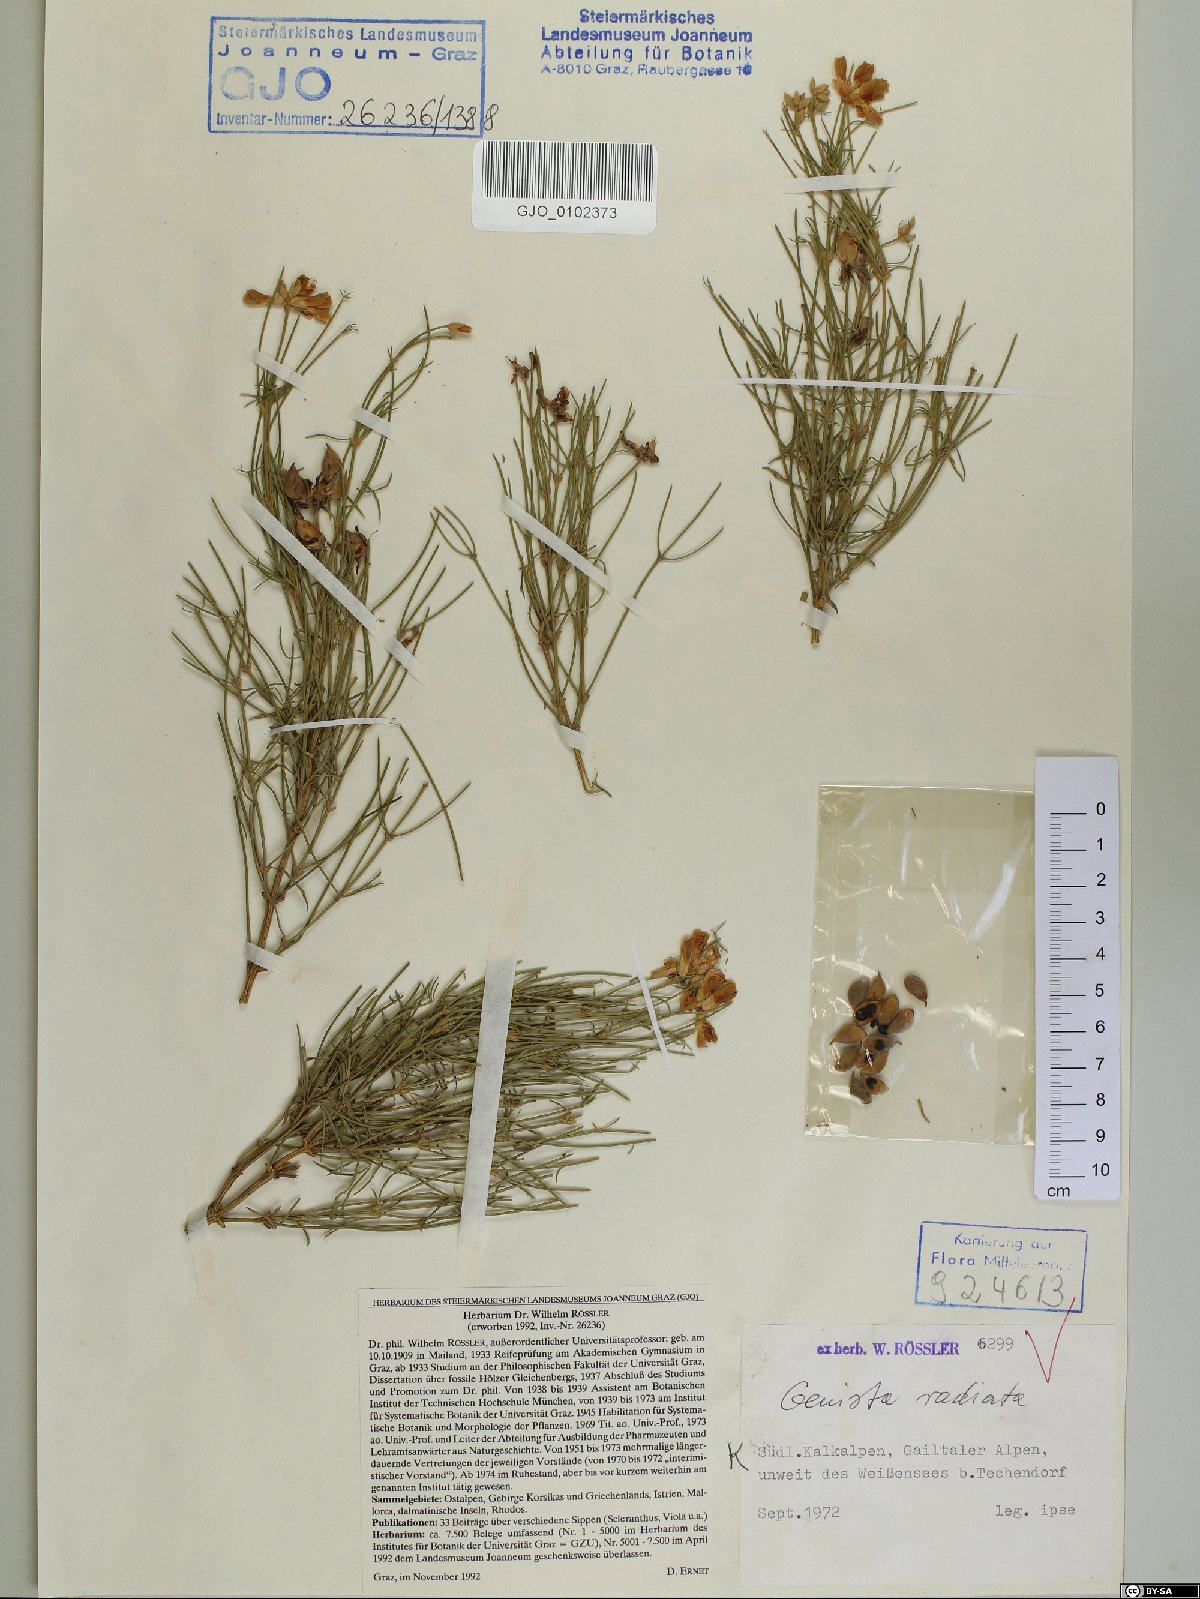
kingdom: Plantae
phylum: Tracheophyta
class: Magnoliopsida
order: Fabales
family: Fabaceae
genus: Genista
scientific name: Genista radiata
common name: Southern greenweed
